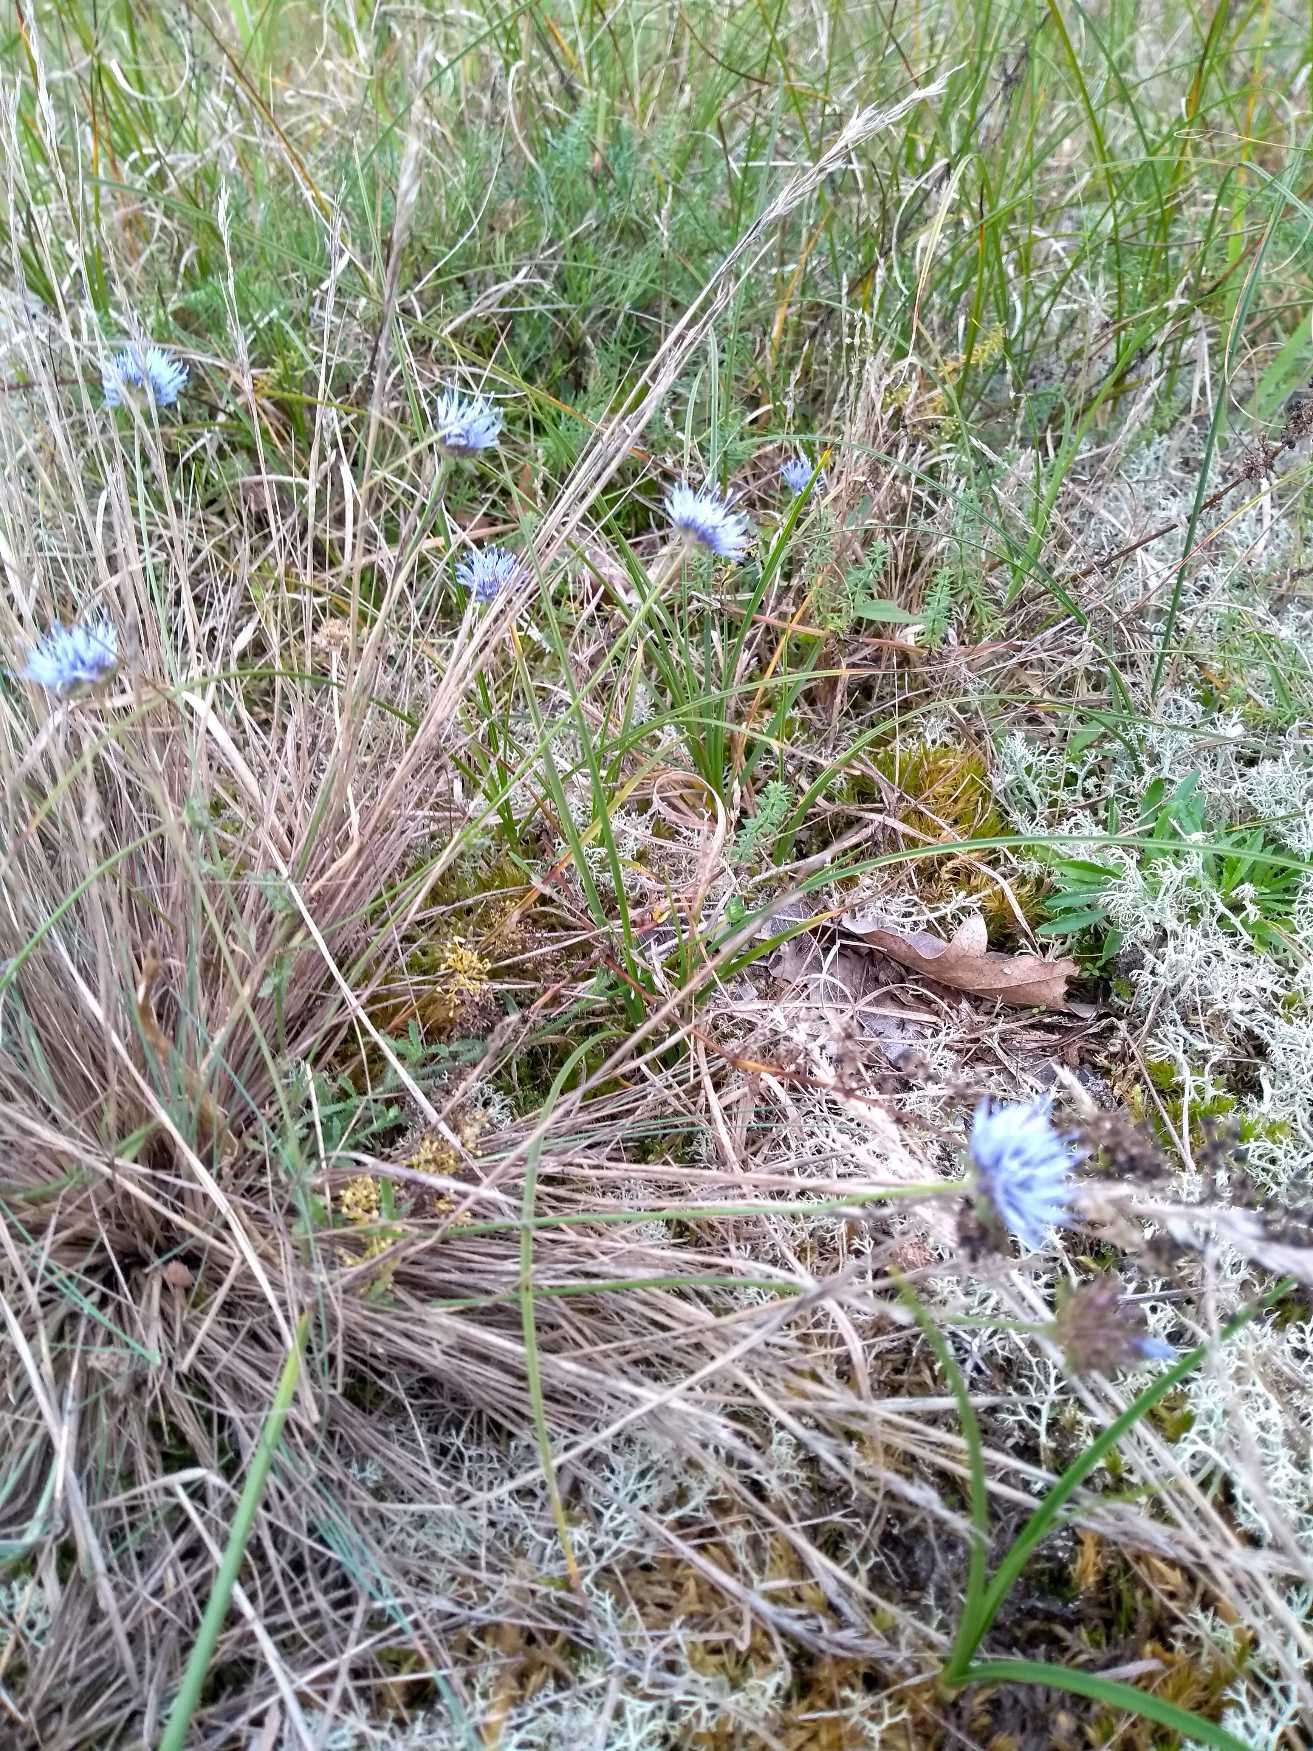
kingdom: Plantae
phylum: Tracheophyta
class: Magnoliopsida
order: Asterales
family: Campanulaceae
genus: Jasione
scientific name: Jasione montana
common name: Blåmunke
